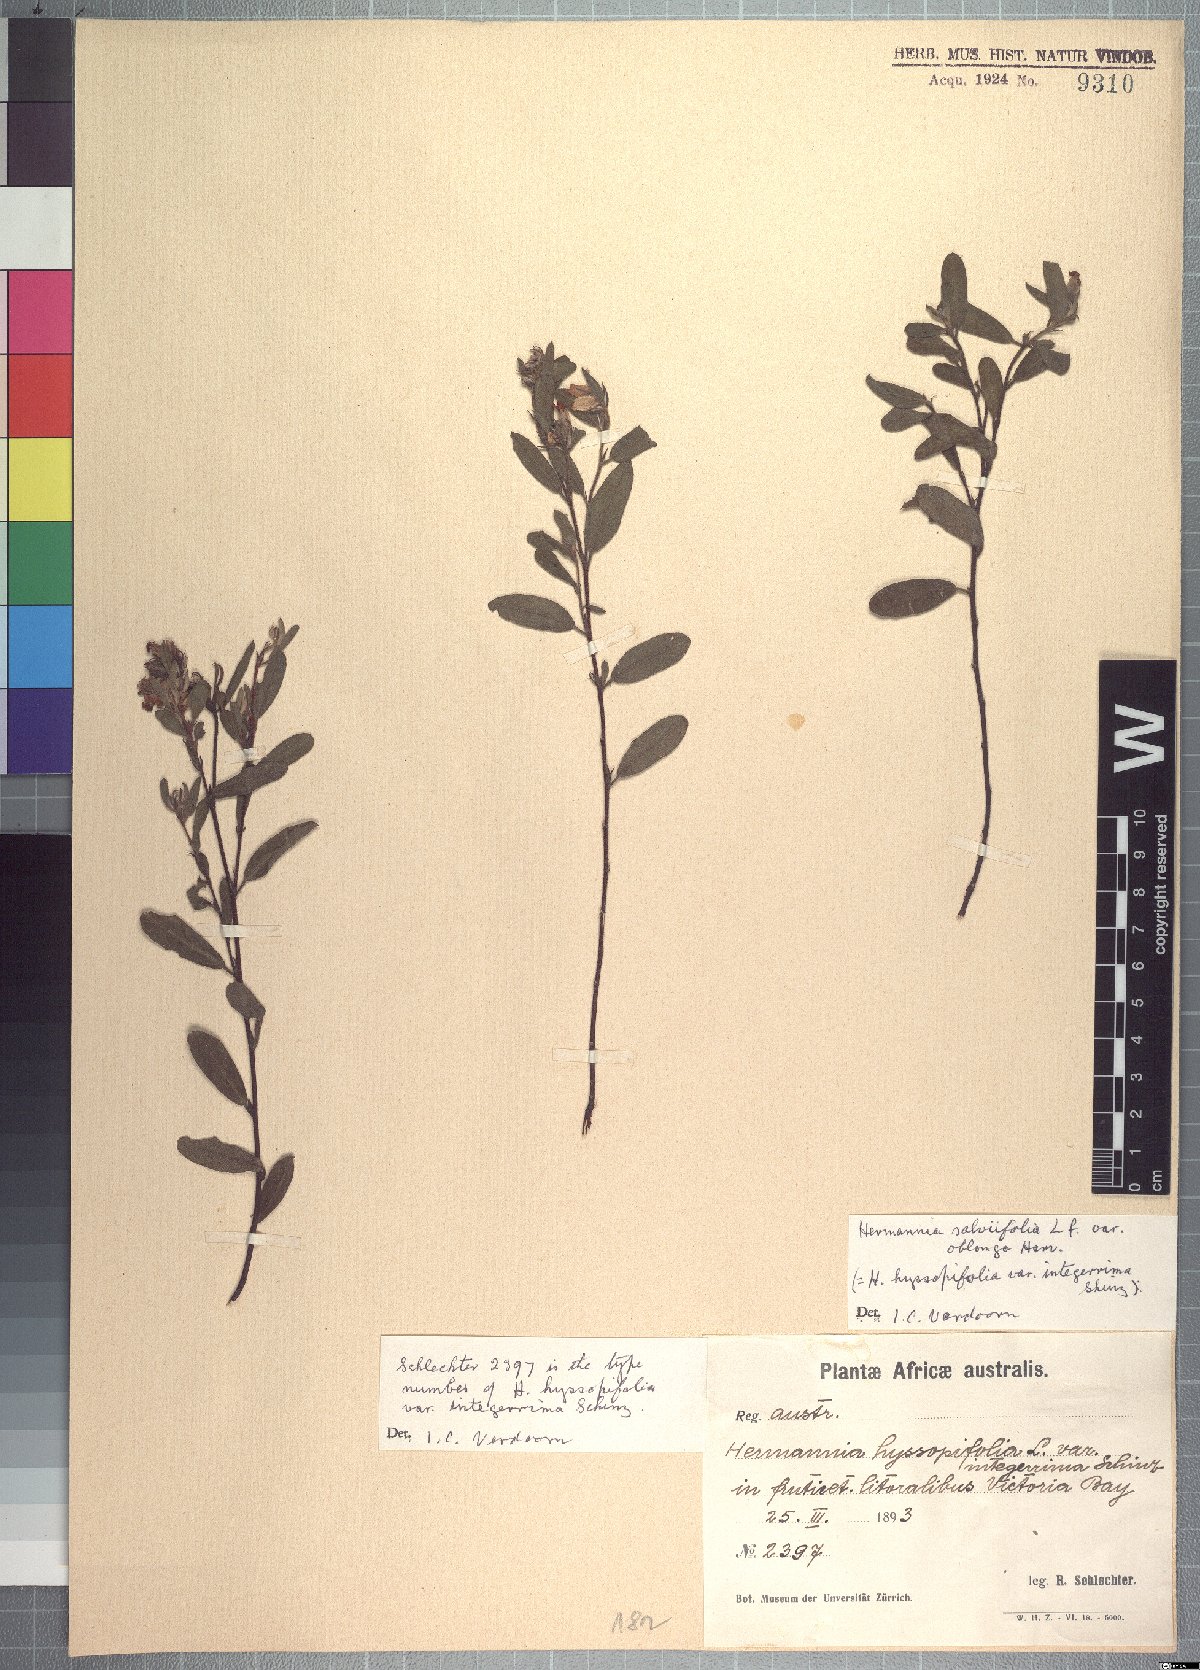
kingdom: Plantae
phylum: Tracheophyta
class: Magnoliopsida
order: Malvales
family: Malvaceae
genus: Hermannia
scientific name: Hermannia salviifolia
